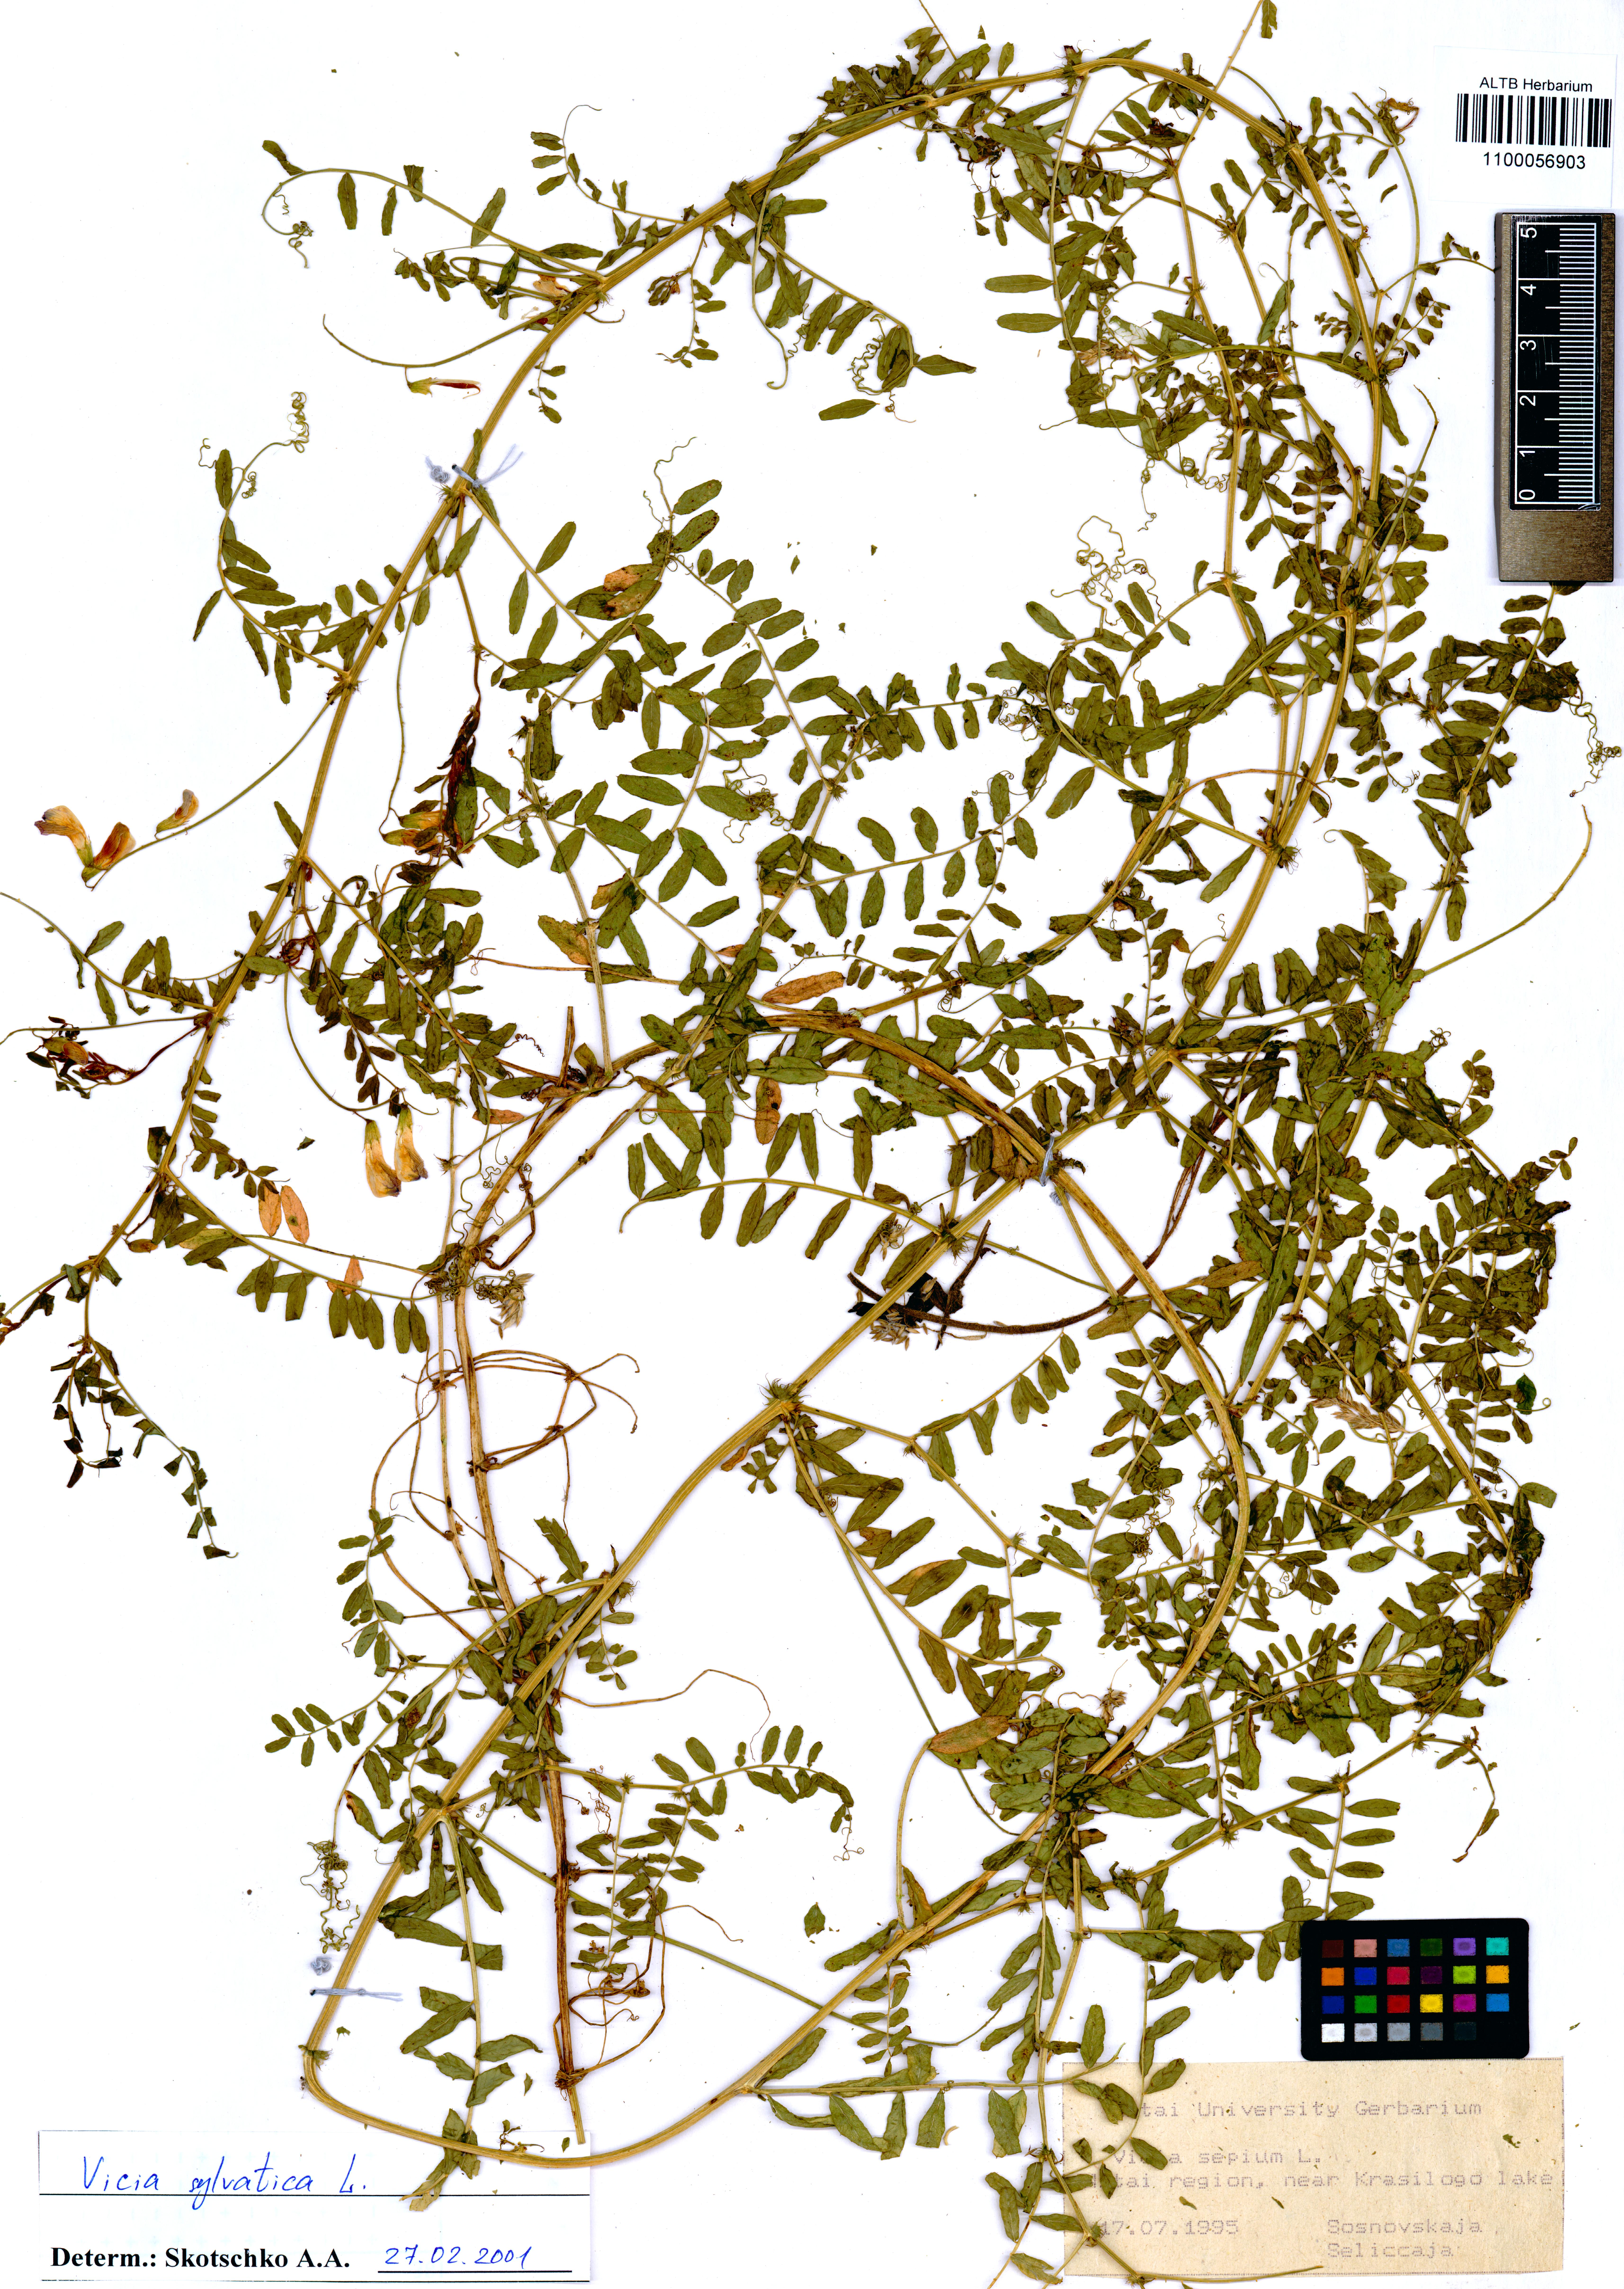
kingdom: Plantae
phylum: Tracheophyta
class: Magnoliopsida
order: Fabales
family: Fabaceae
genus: Vicia
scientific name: Vicia sylvatica
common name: Wood vetch
